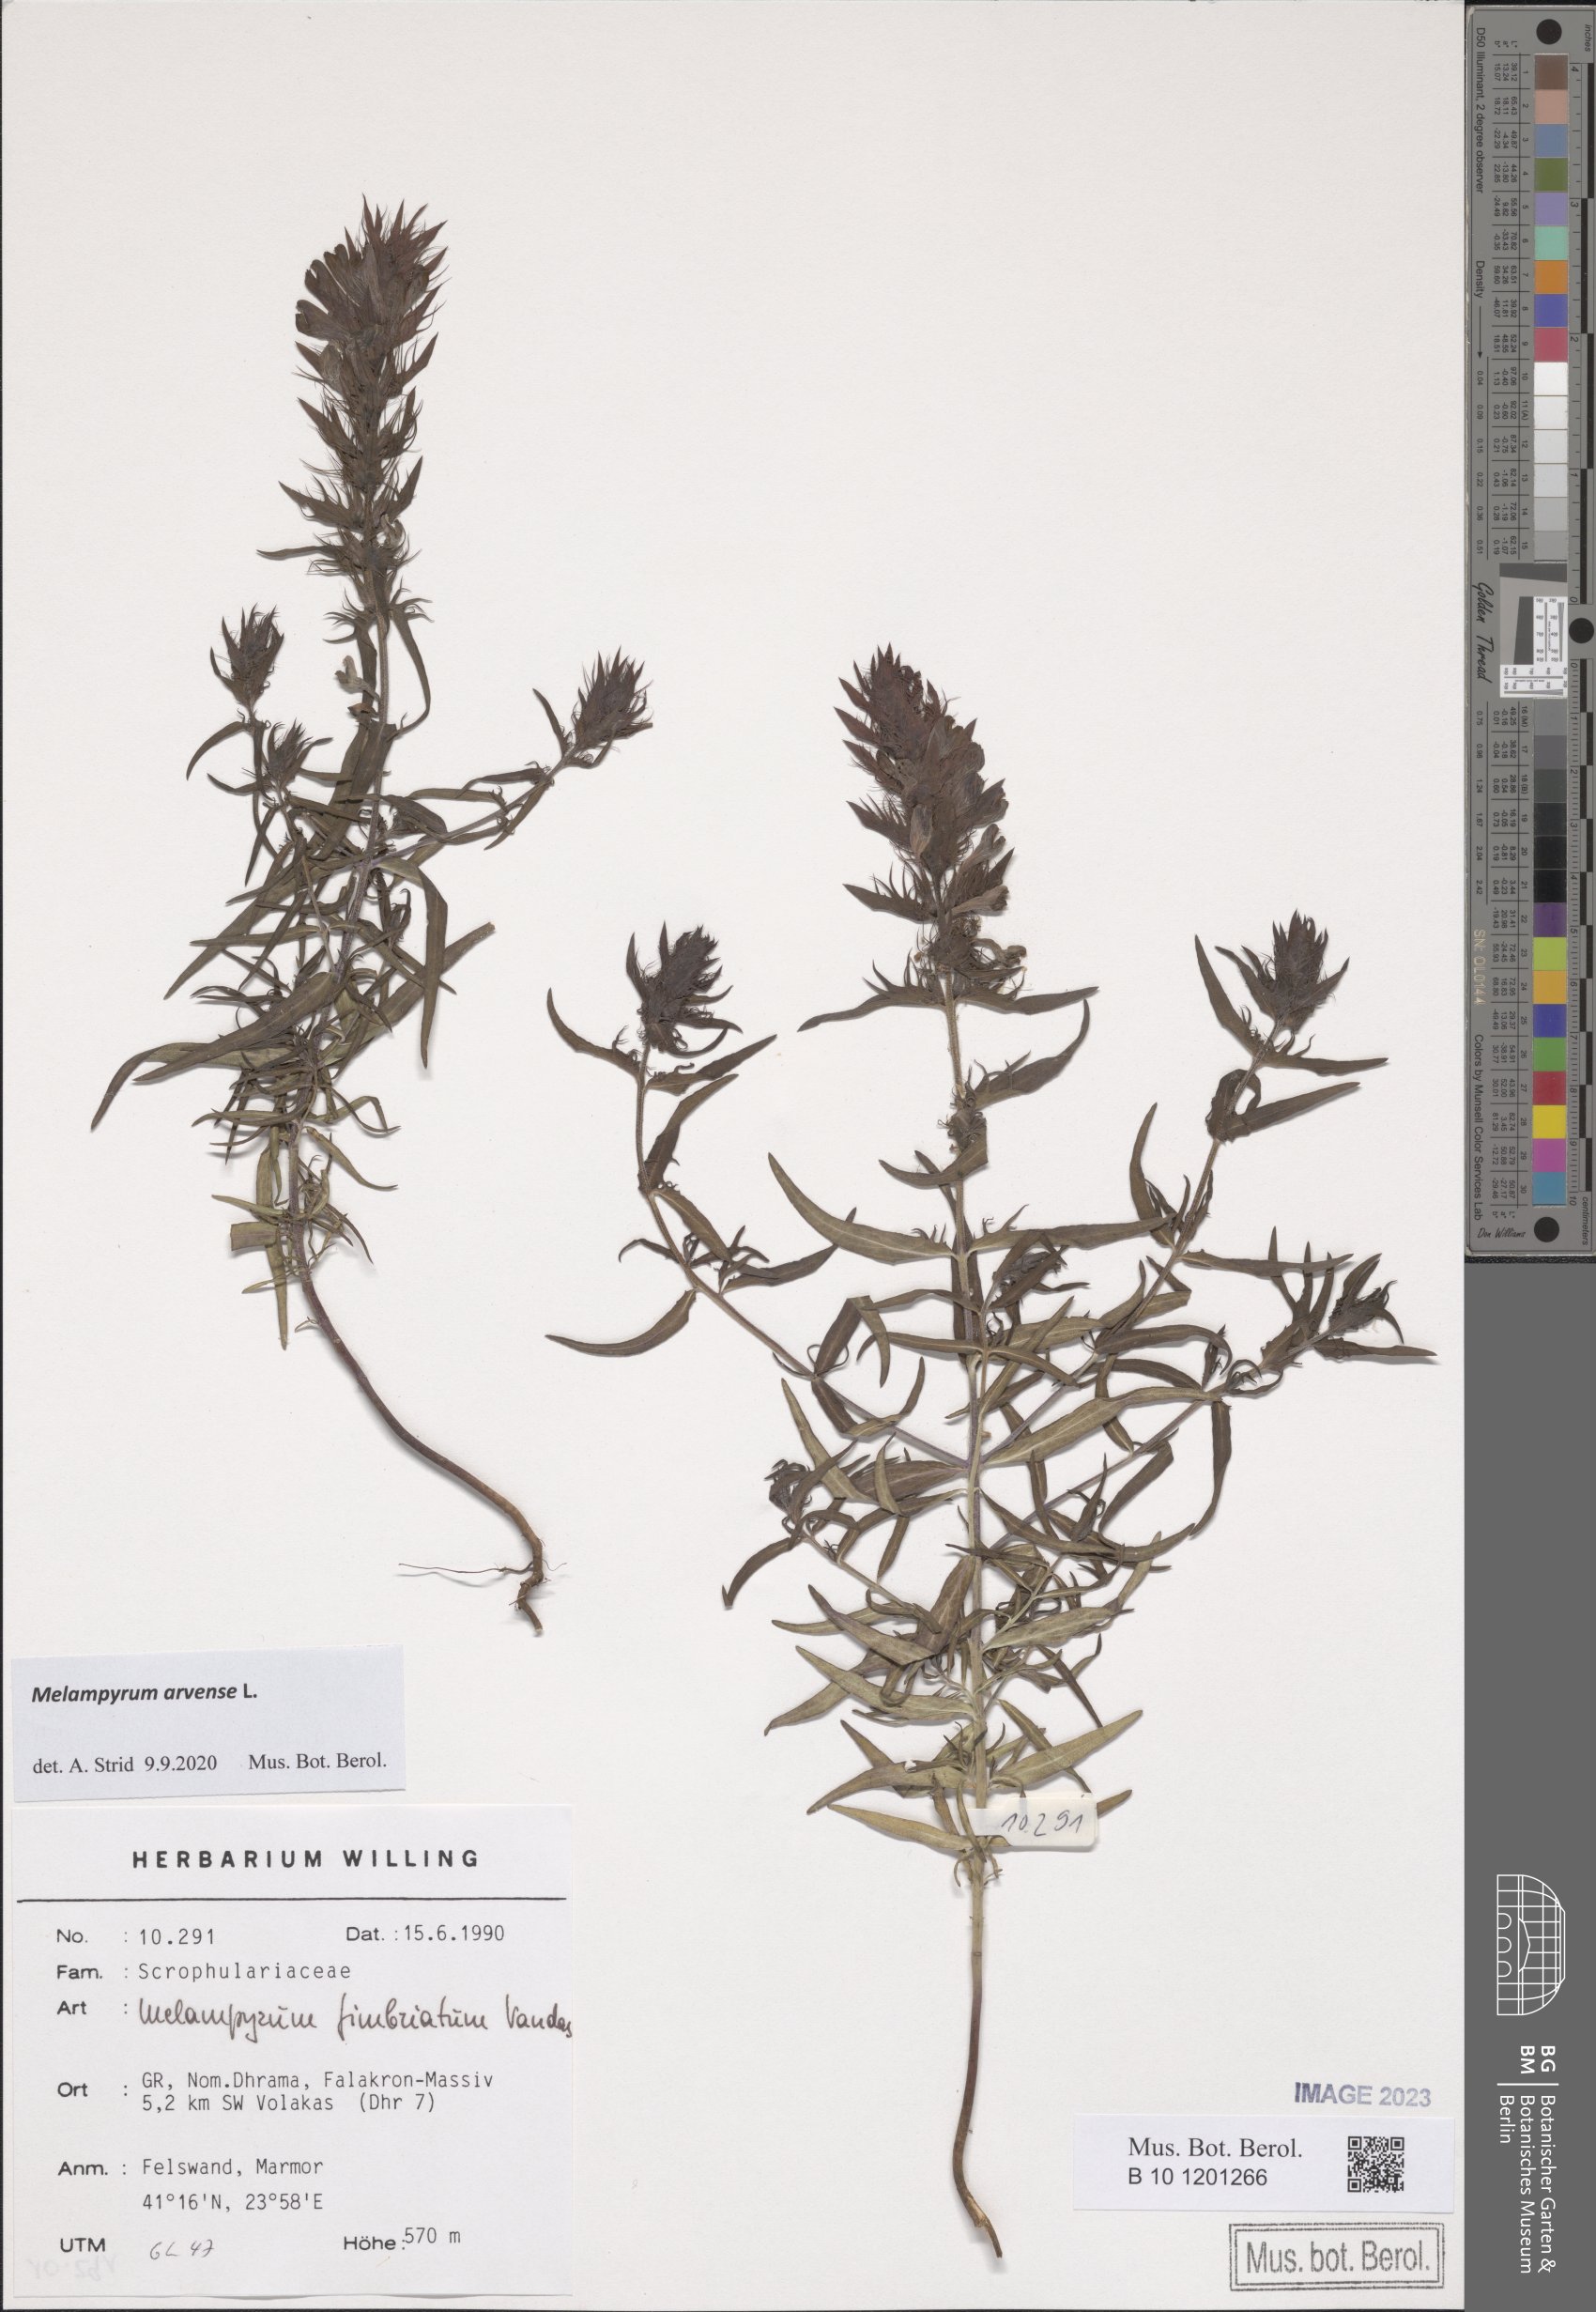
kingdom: Plantae
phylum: Tracheophyta
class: Magnoliopsida
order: Lamiales
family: Orobanchaceae
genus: Melampyrum
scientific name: Melampyrum arvense
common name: Field cow-wheat
